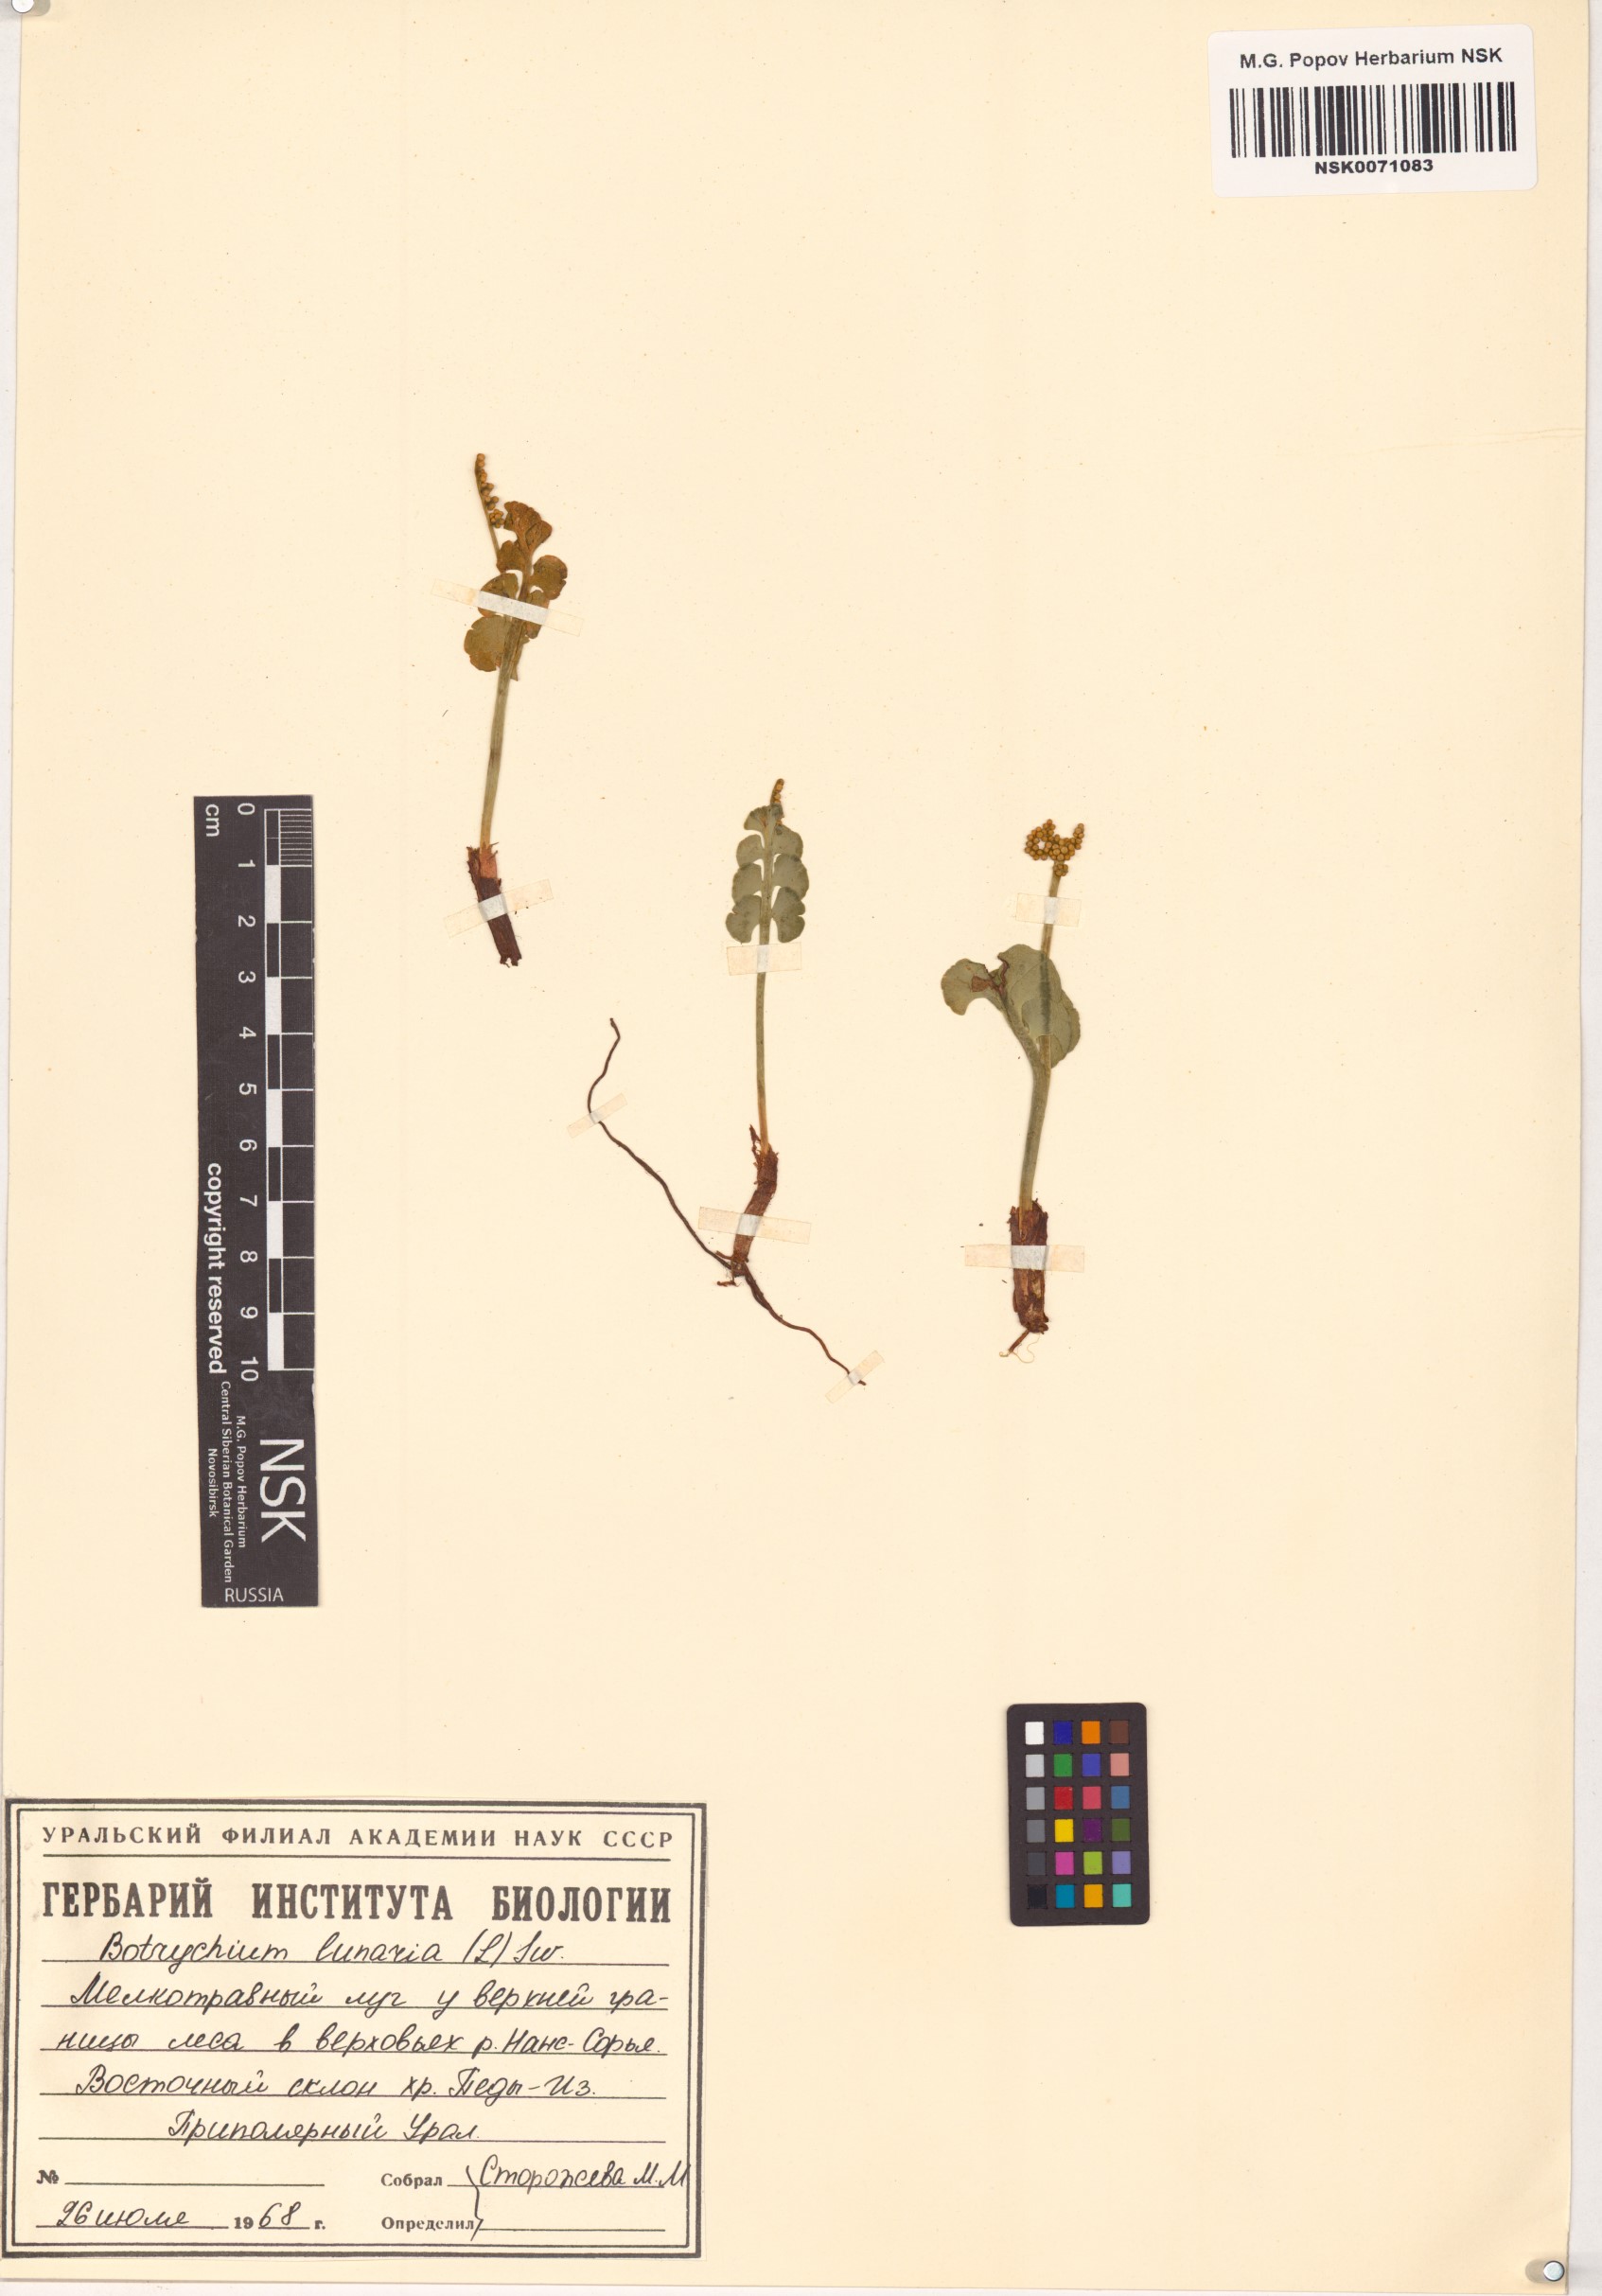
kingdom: Plantae
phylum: Tracheophyta
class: Polypodiopsida
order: Ophioglossales
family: Ophioglossaceae
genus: Botrychium
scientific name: Botrychium lunaria
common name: Moonwort
